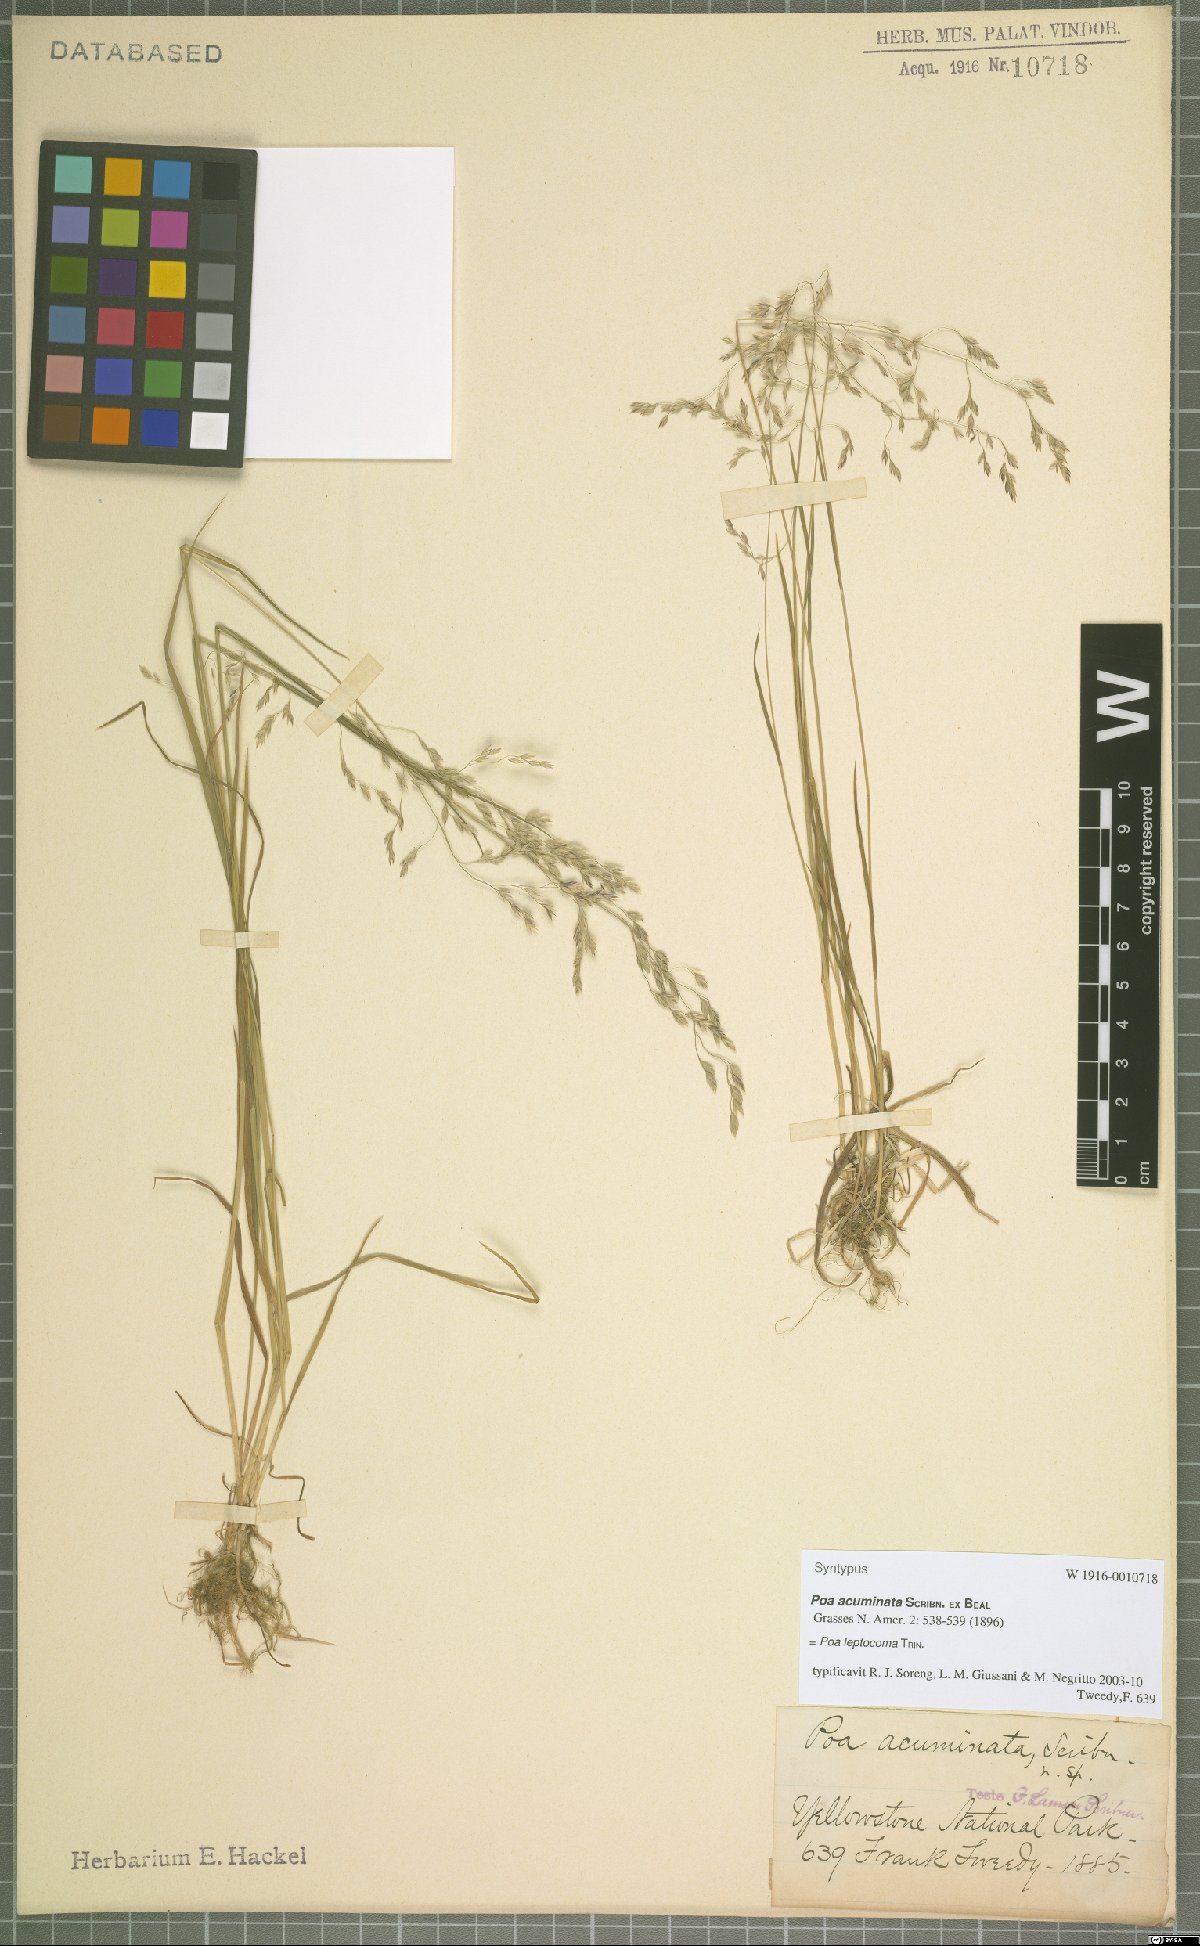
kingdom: Plantae
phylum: Tracheophyta
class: Liliopsida
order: Poales
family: Poaceae
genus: Poa
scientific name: Poa leptocoma
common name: Bog bluegrass
